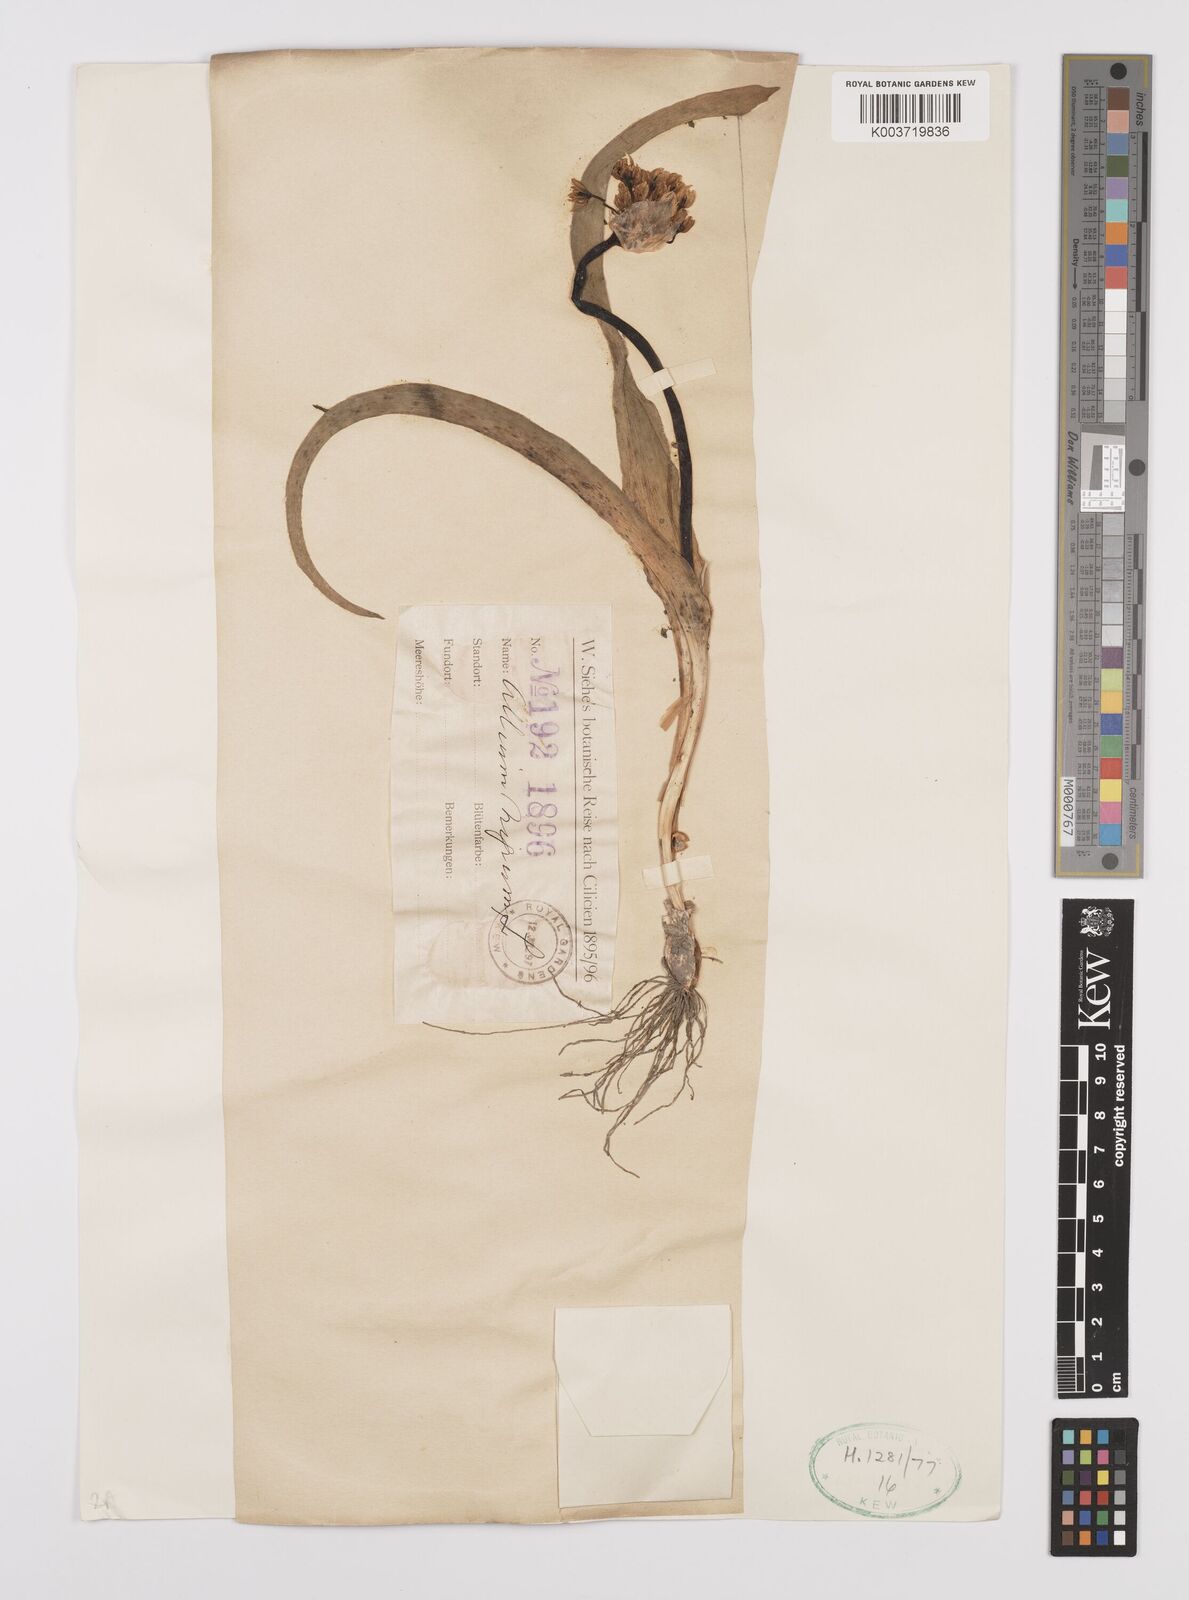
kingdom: Plantae
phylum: Tracheophyta
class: Liliopsida
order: Asparagales
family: Amaryllidaceae
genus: Allium
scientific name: Allium nigrum
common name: Black garlic
